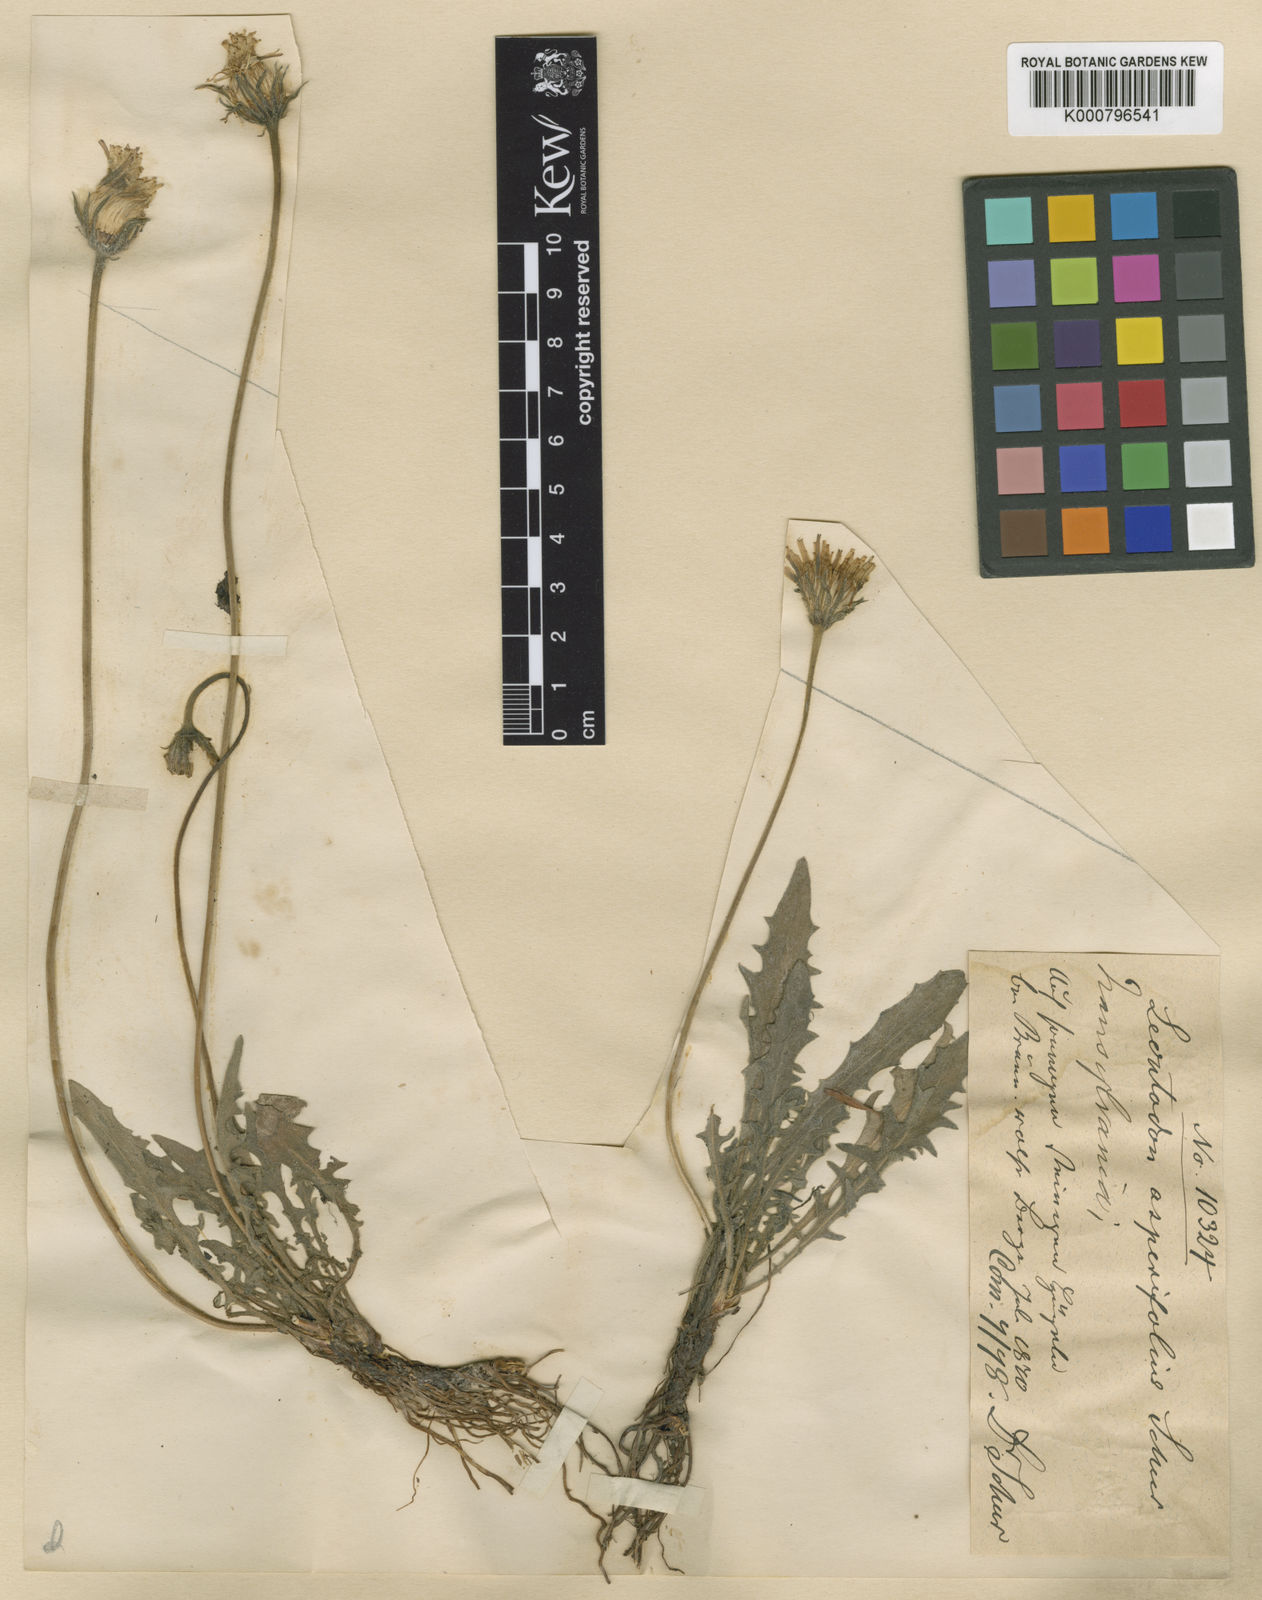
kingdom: Plantae
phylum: Tracheophyta
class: Magnoliopsida
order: Asterales
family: Asteraceae
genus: Leontodon
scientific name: Leontodon hispidus
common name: Rough hawkbit
